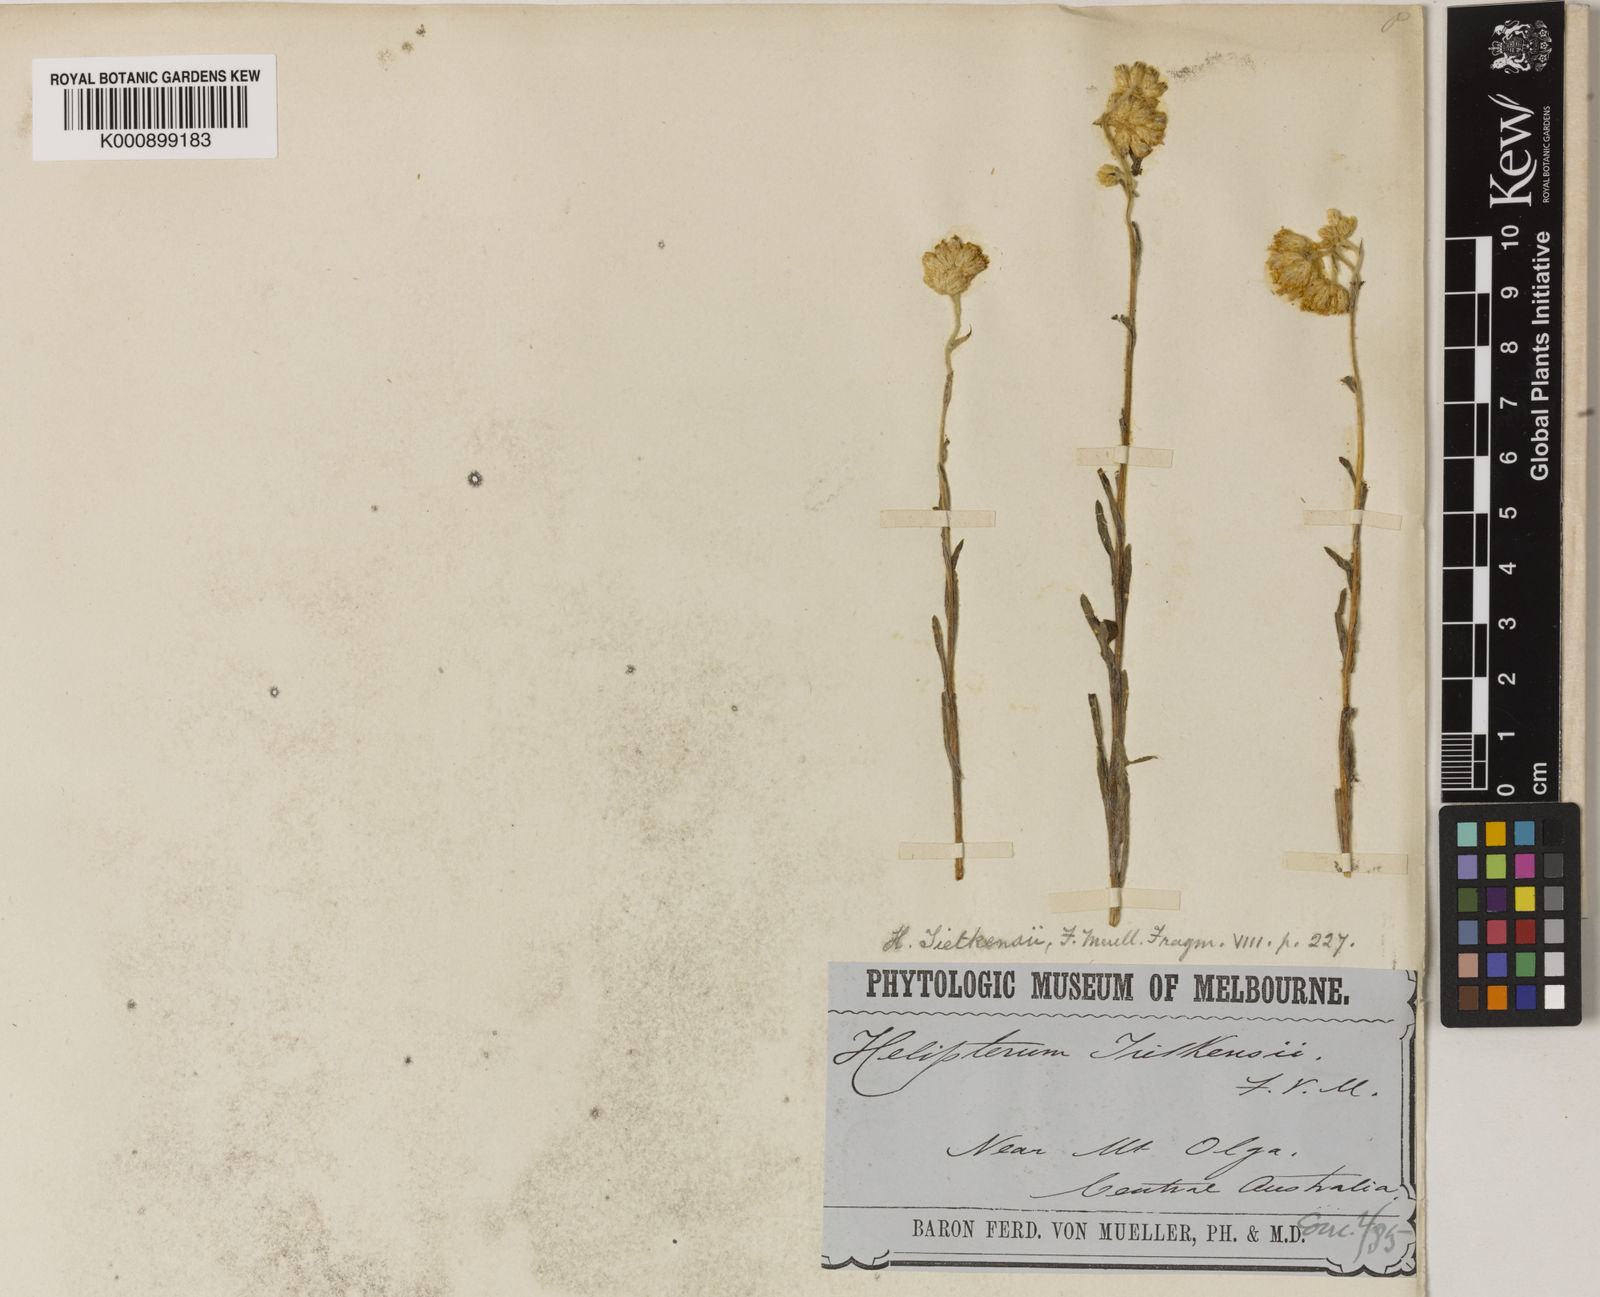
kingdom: Plantae
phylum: Tracheophyta
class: Magnoliopsida
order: Asterales
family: Asteraceae
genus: Rhodanthe
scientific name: Rhodanthe tietkensii
